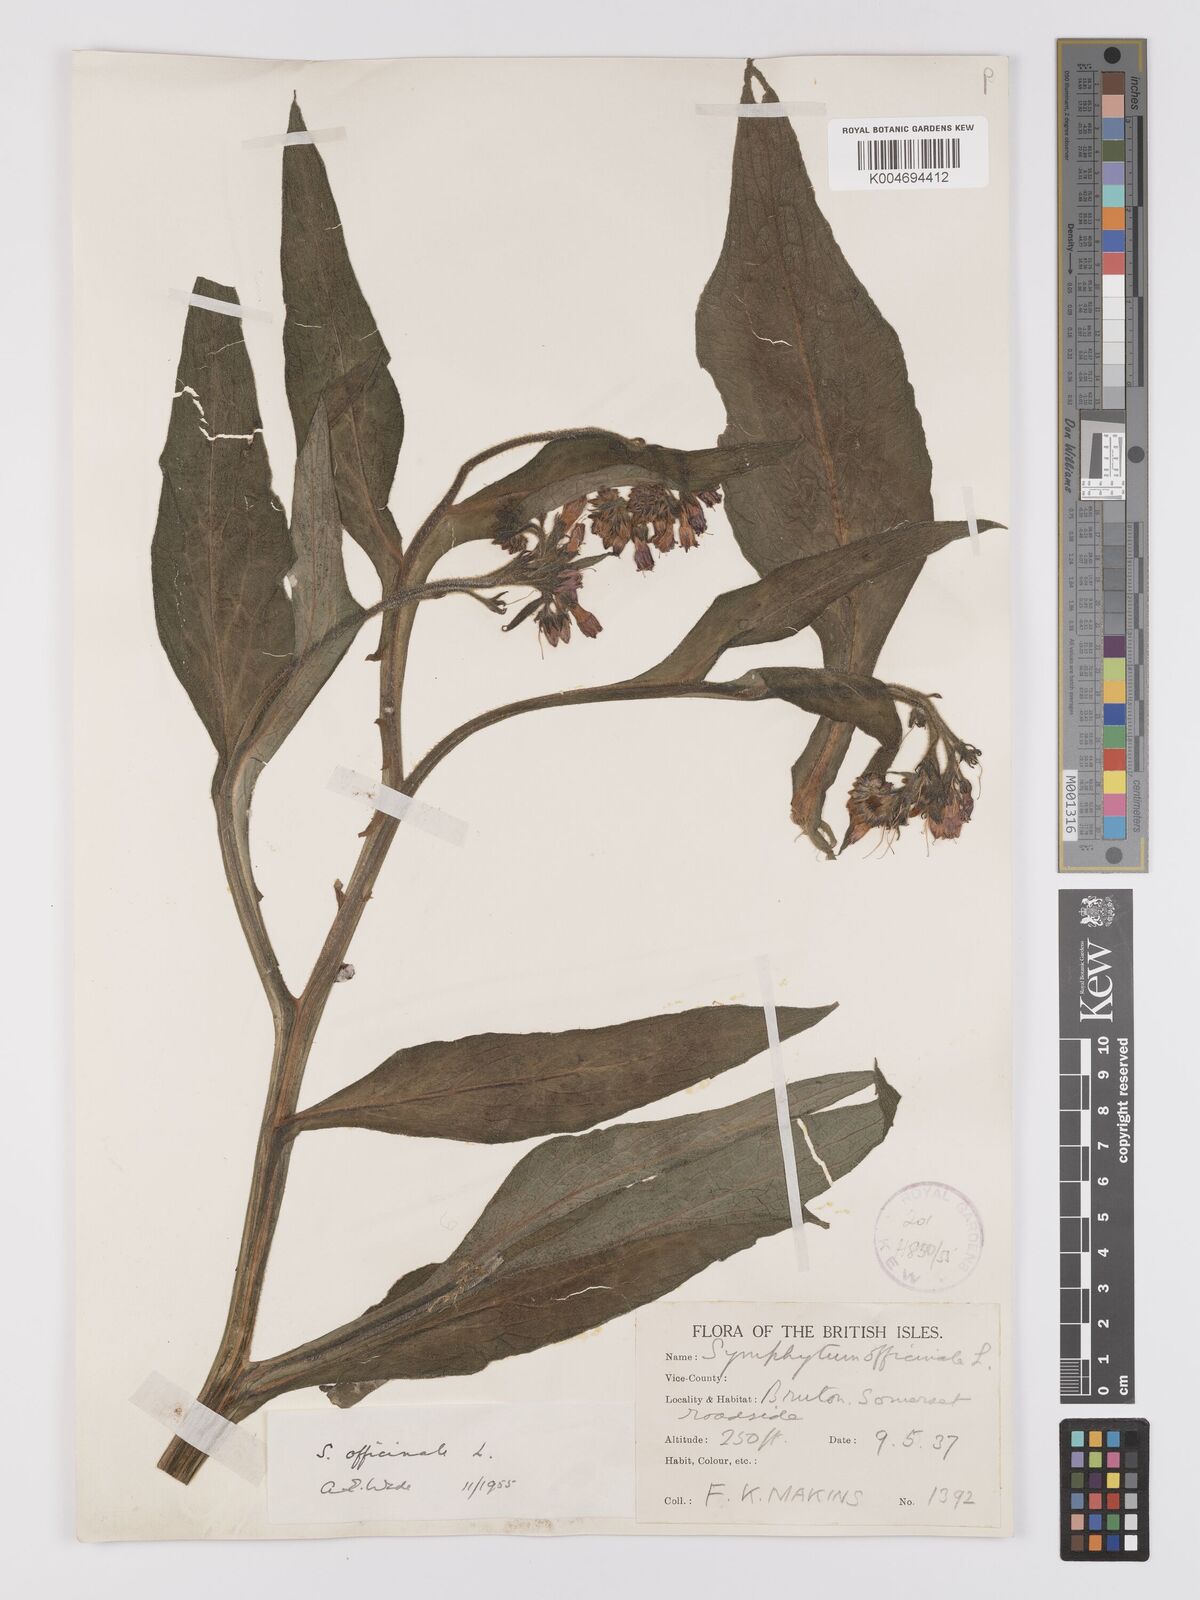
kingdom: Plantae
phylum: Tracheophyta
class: Magnoliopsida
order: Boraginales
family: Boraginaceae
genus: Symphytum
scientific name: Symphytum officinale
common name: Common comfrey
